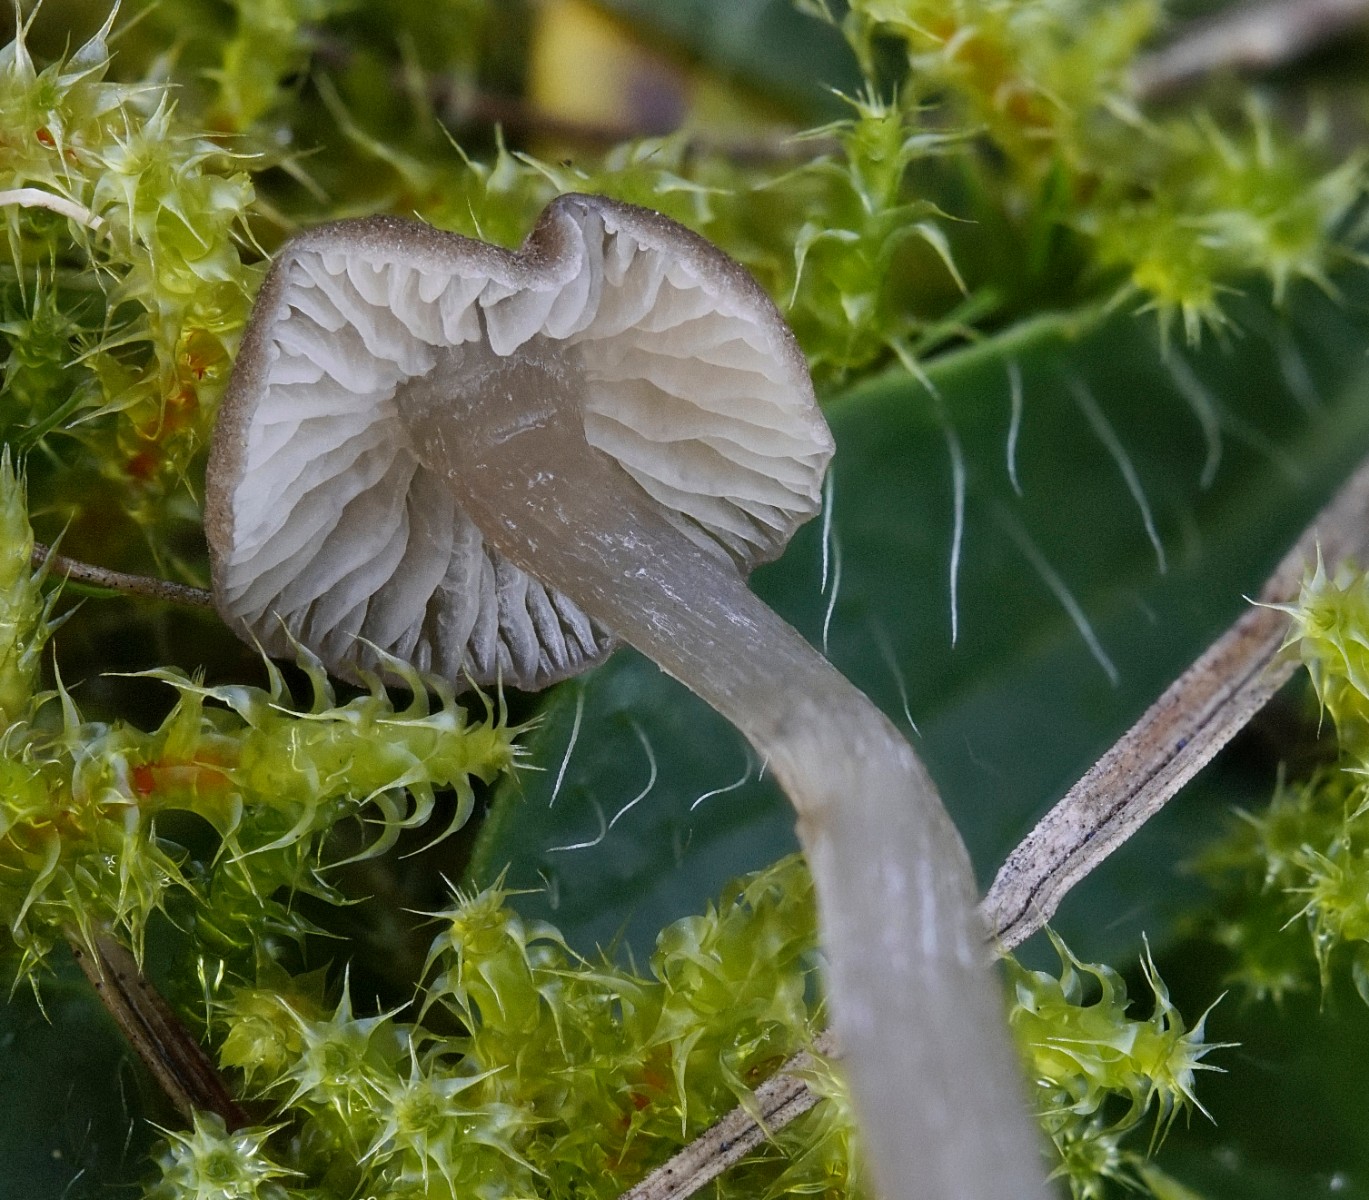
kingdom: Fungi
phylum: Basidiomycota
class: Agaricomycetes
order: Agaricales
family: Entolomataceae
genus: Entoloma
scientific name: Entoloma
